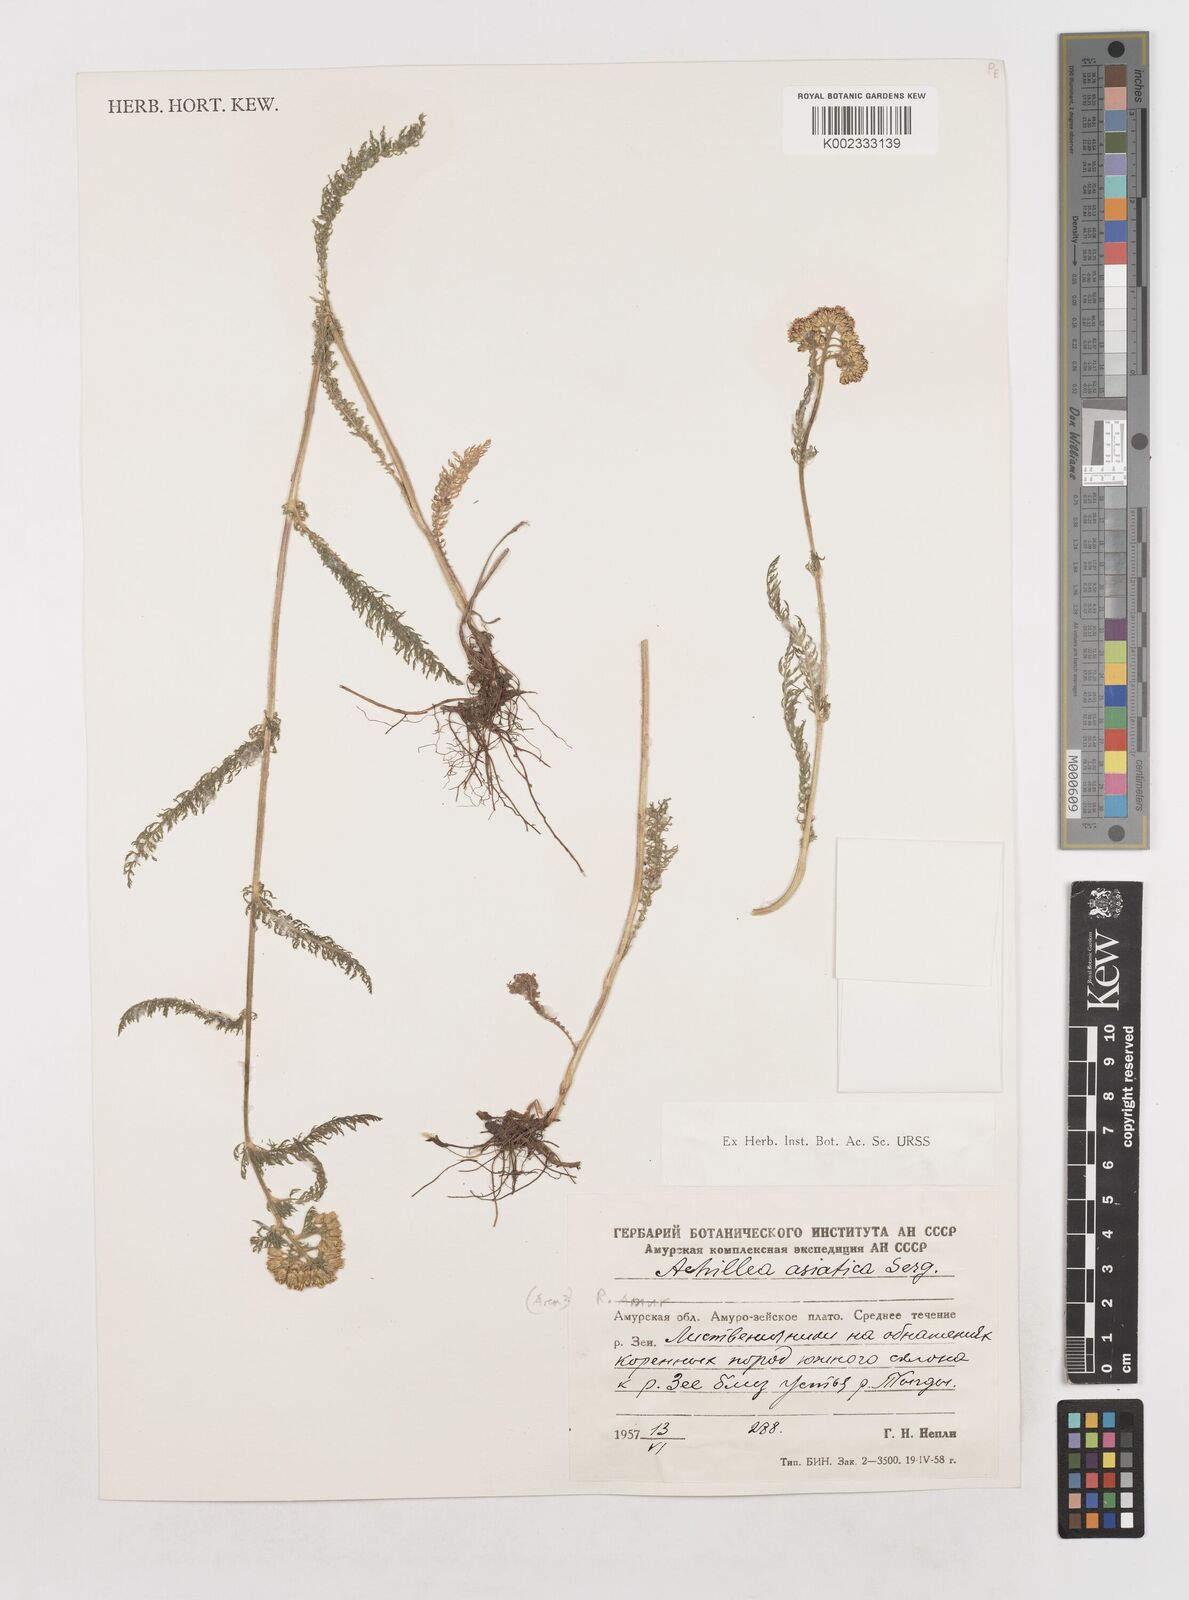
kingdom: Plantae
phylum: Tracheophyta
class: Magnoliopsida
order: Asterales
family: Asteraceae
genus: Achillea
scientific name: Achillea asiatica
